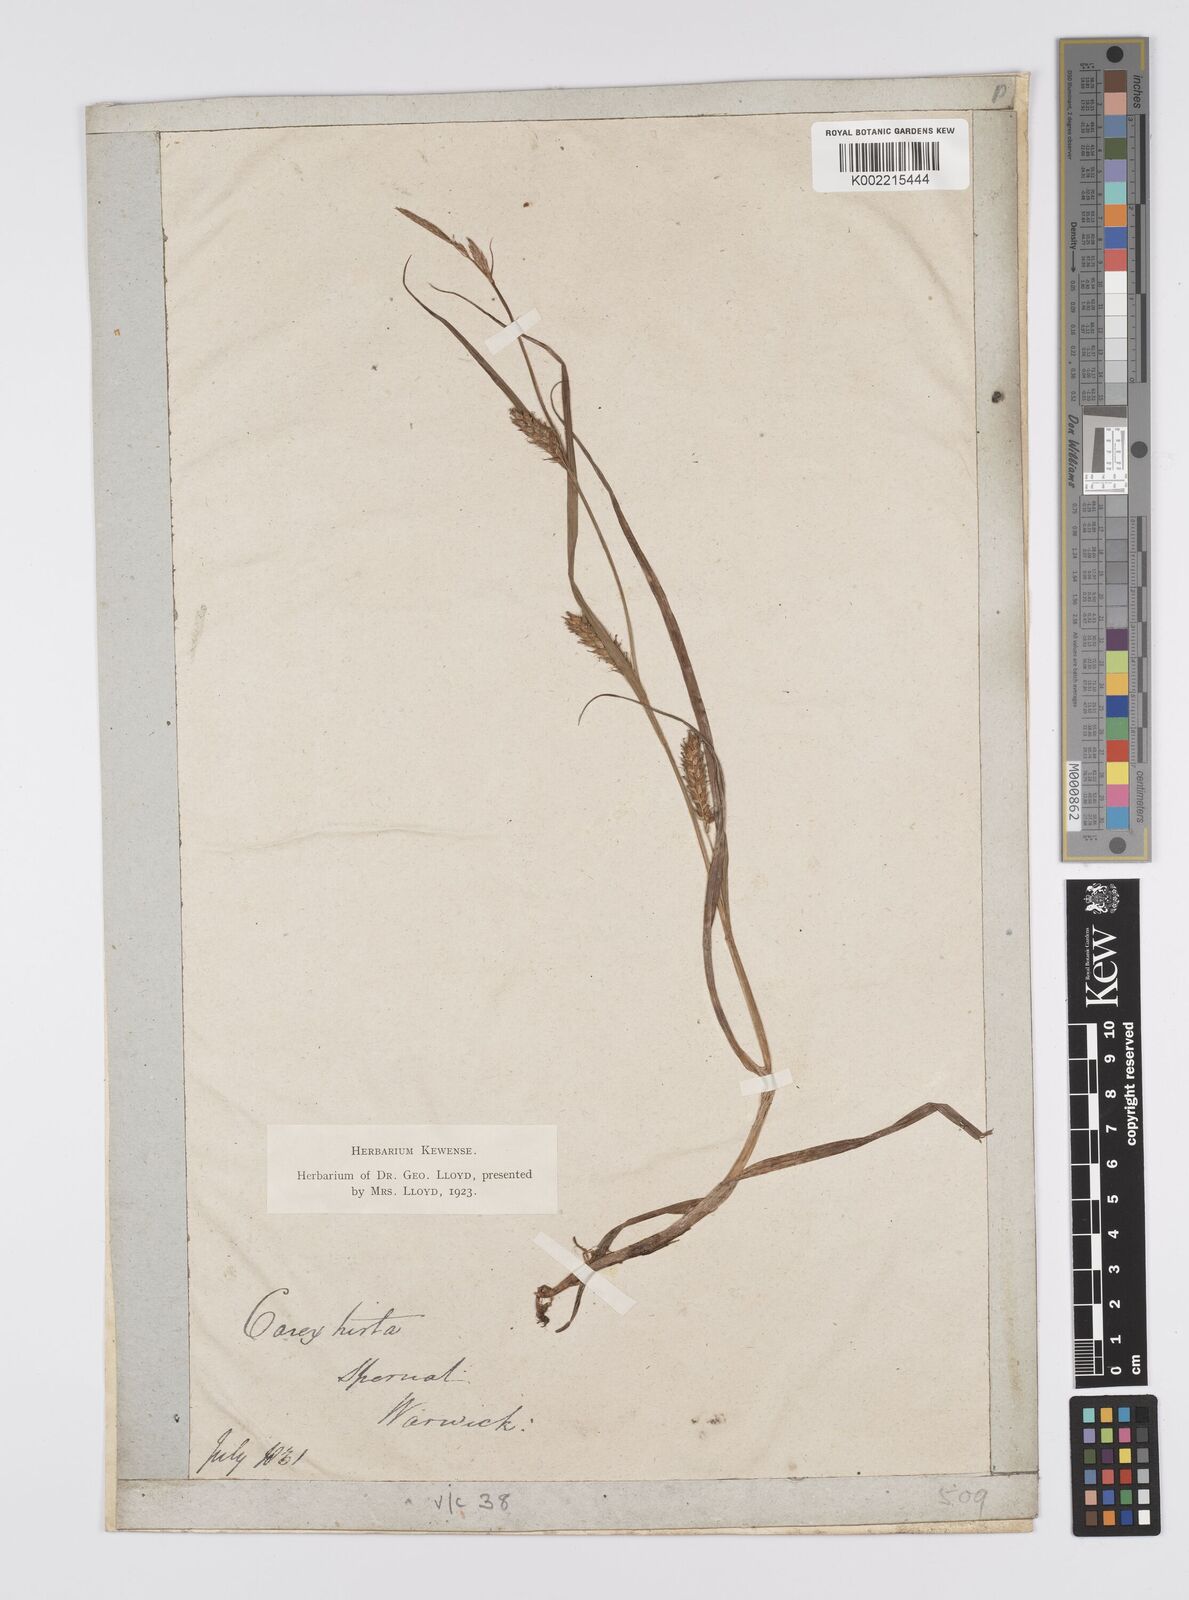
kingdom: Plantae
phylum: Tracheophyta
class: Liliopsida
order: Poales
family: Cyperaceae
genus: Carex
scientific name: Carex hirta
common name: Hairy sedge
